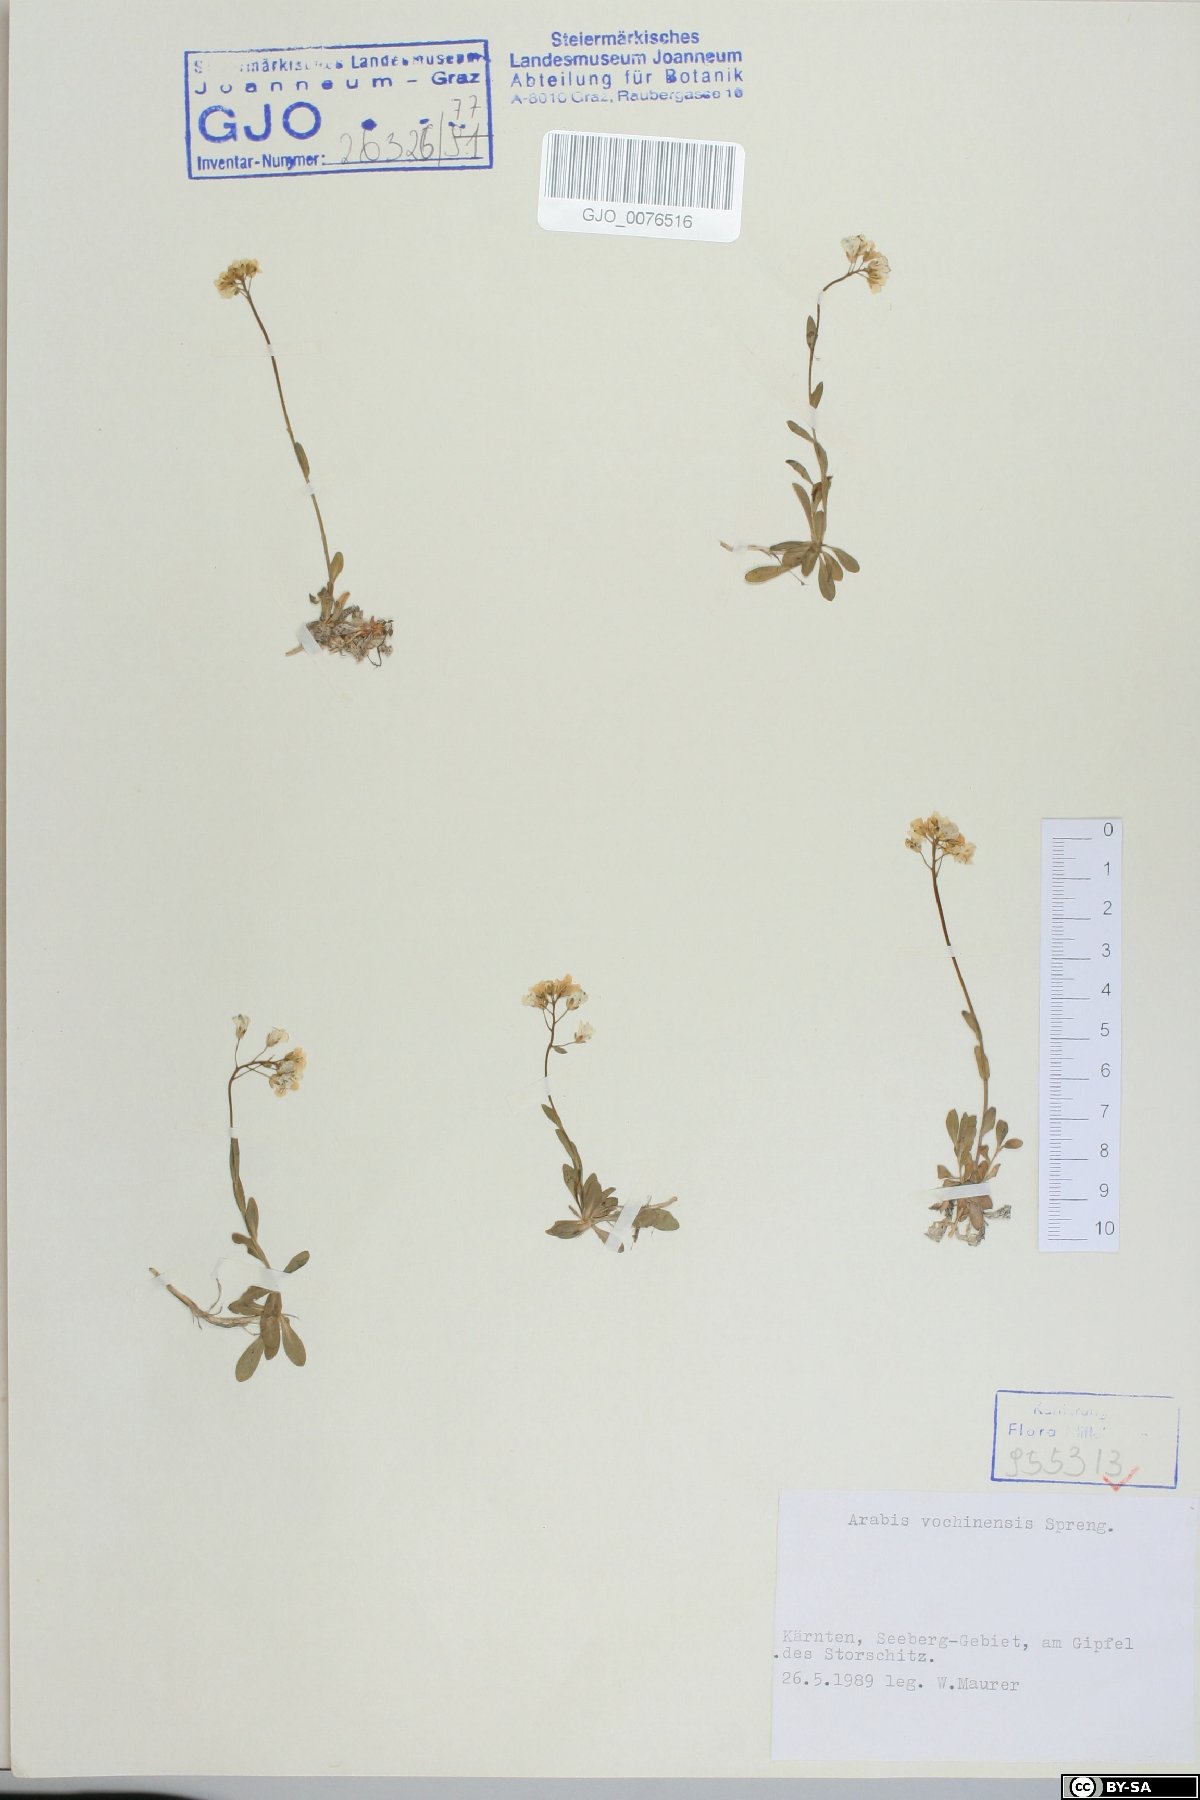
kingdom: Plantae
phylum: Tracheophyta
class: Magnoliopsida
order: Brassicales
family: Brassicaceae
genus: Arabis
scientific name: Arabis vochinensis
